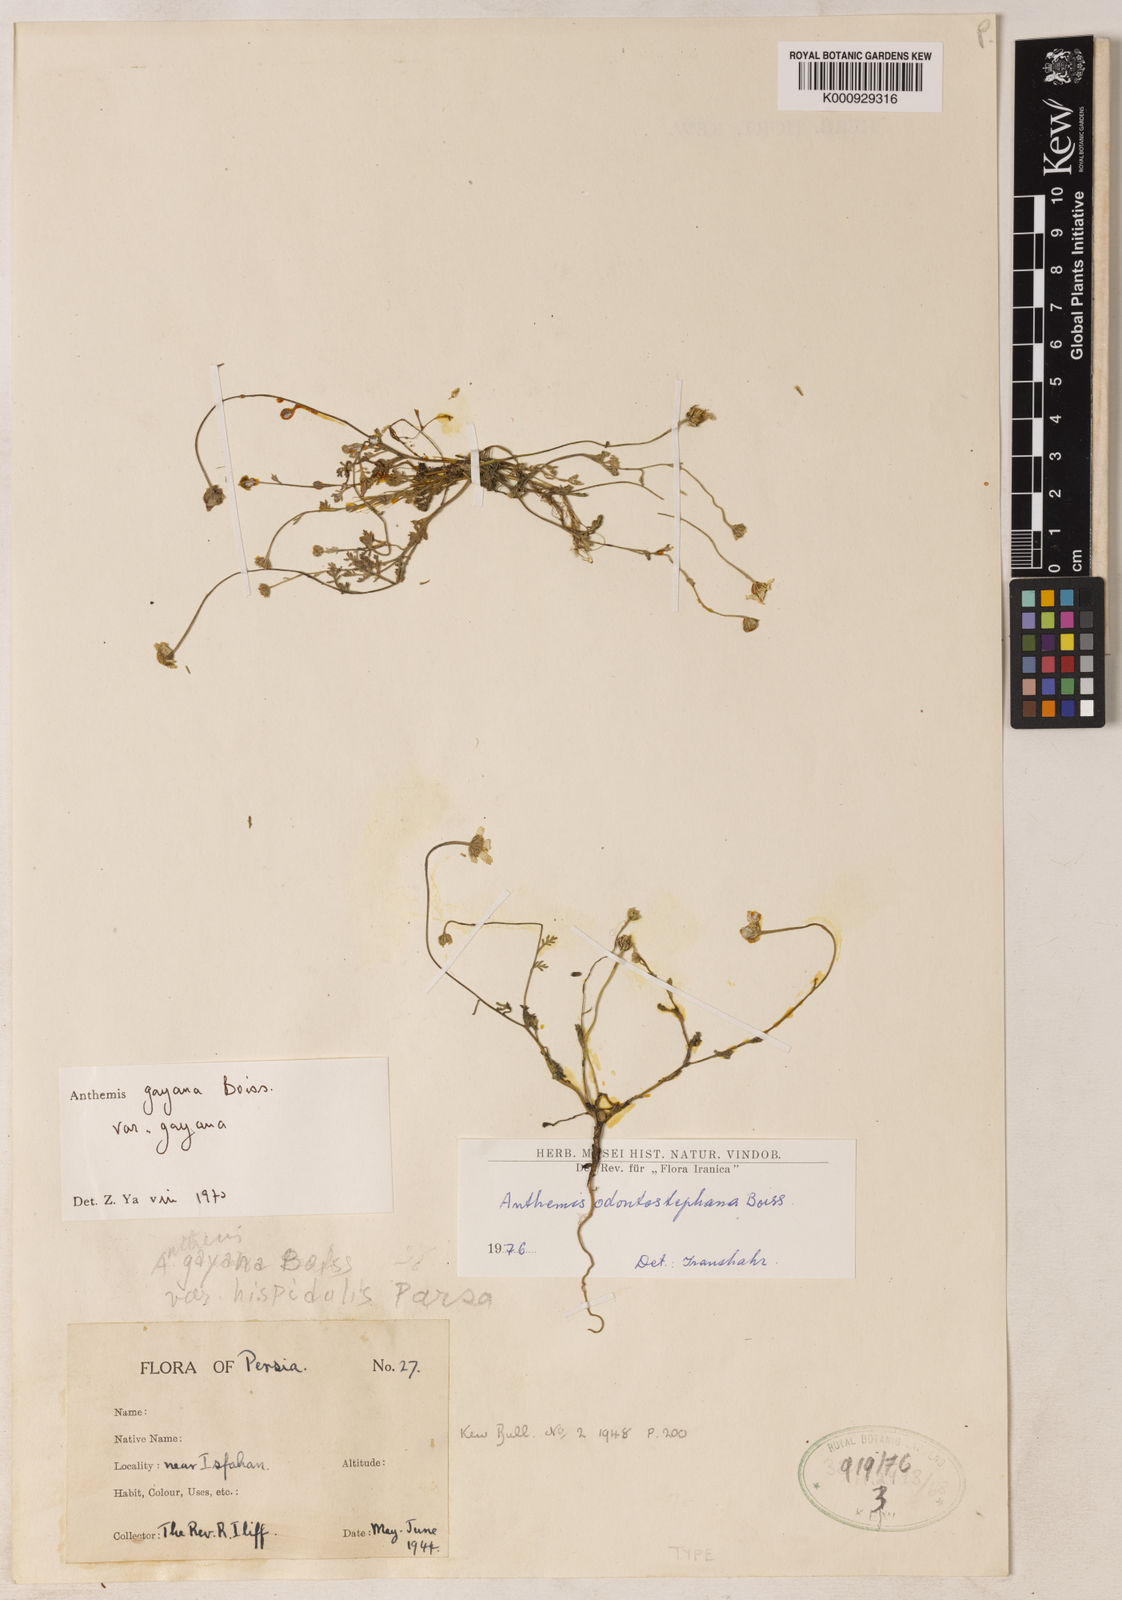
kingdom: Plantae
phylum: Tracheophyta
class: Magnoliopsida
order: Asterales
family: Asteraceae
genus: Anthemis
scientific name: Anthemis odontostephana
